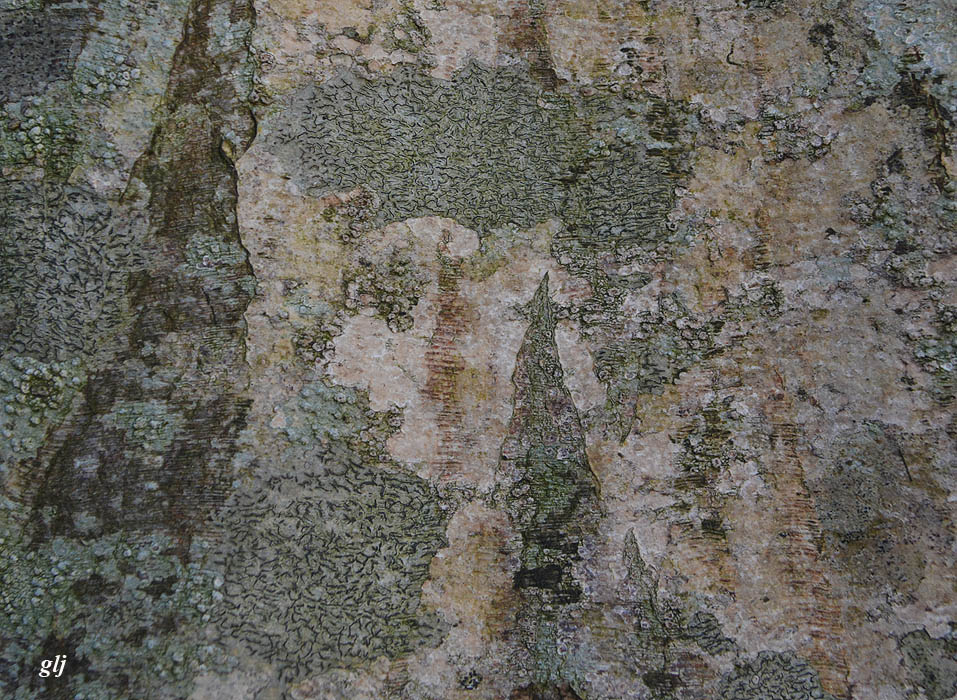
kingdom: Fungi
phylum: Ascomycota
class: Lecanoromycetes
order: Ostropales
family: Graphidaceae
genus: Graphis
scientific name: Graphis scripta
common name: almindelig skriftlav
